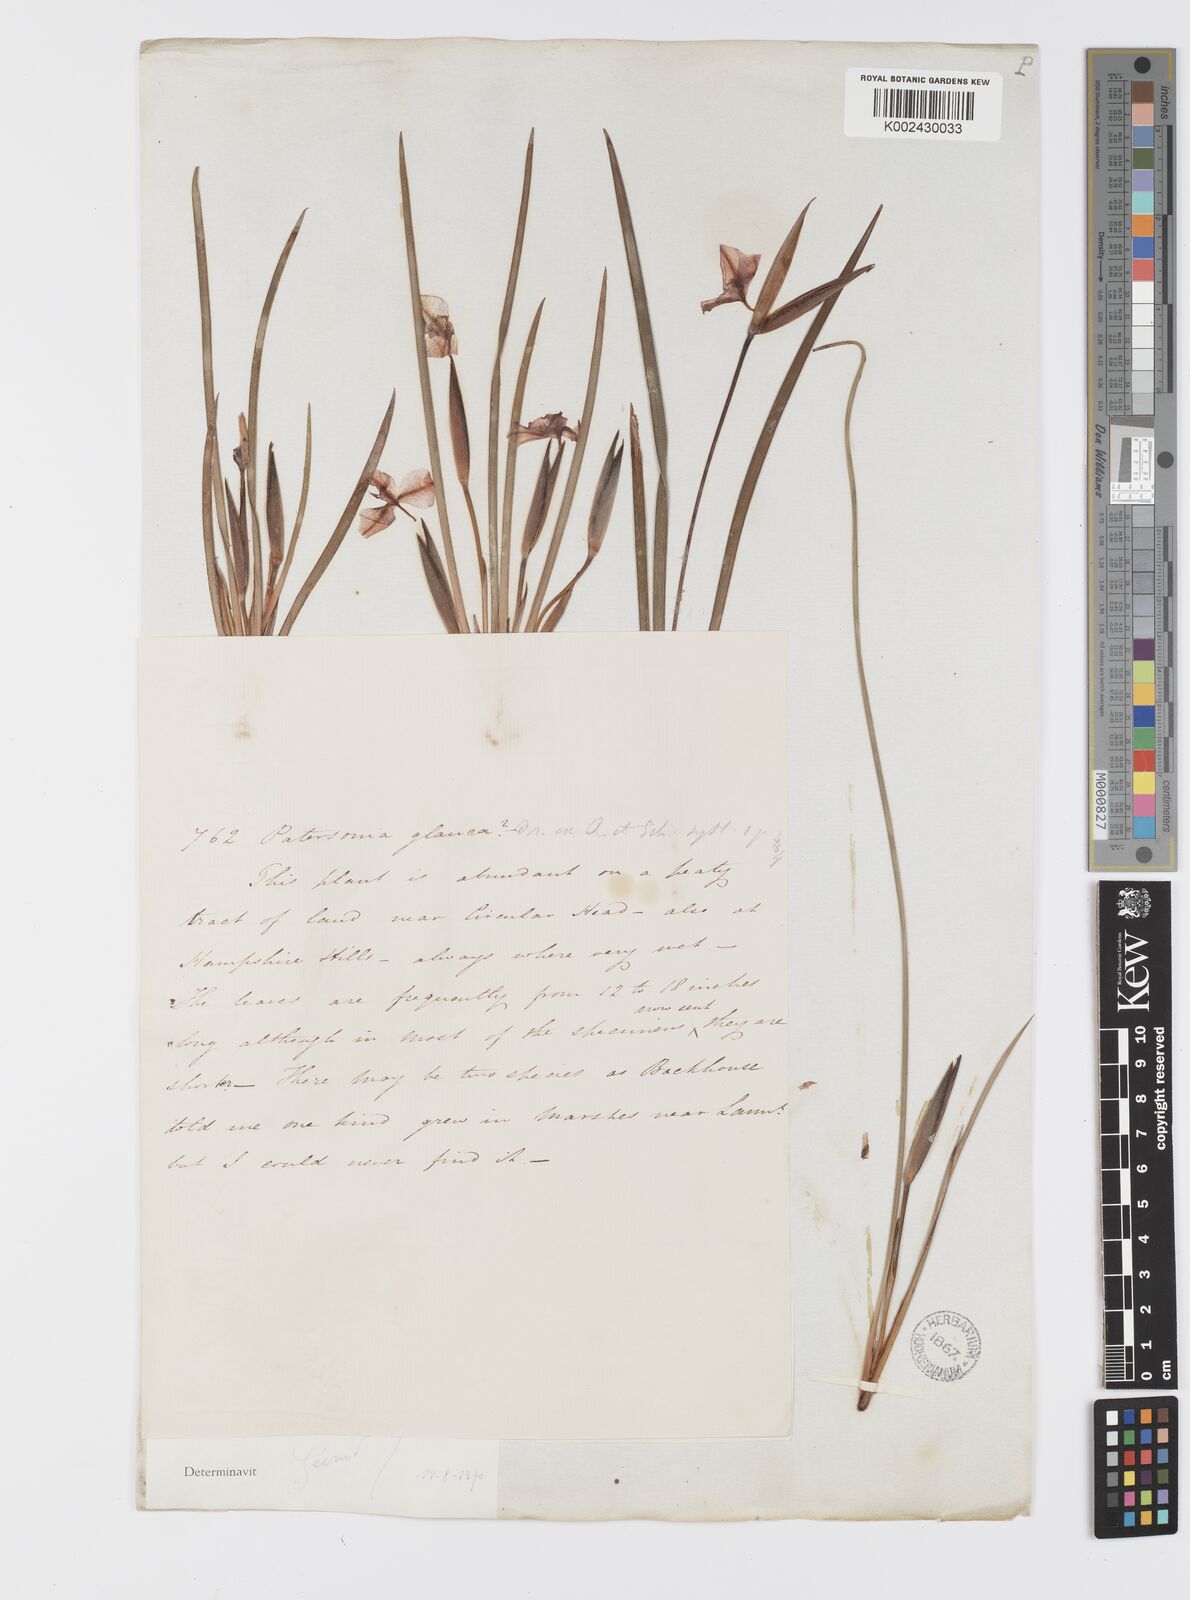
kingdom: Plantae
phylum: Tracheophyta
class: Liliopsida
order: Asparagales
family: Iridaceae
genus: Patersonia
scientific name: Patersonia fragilis
